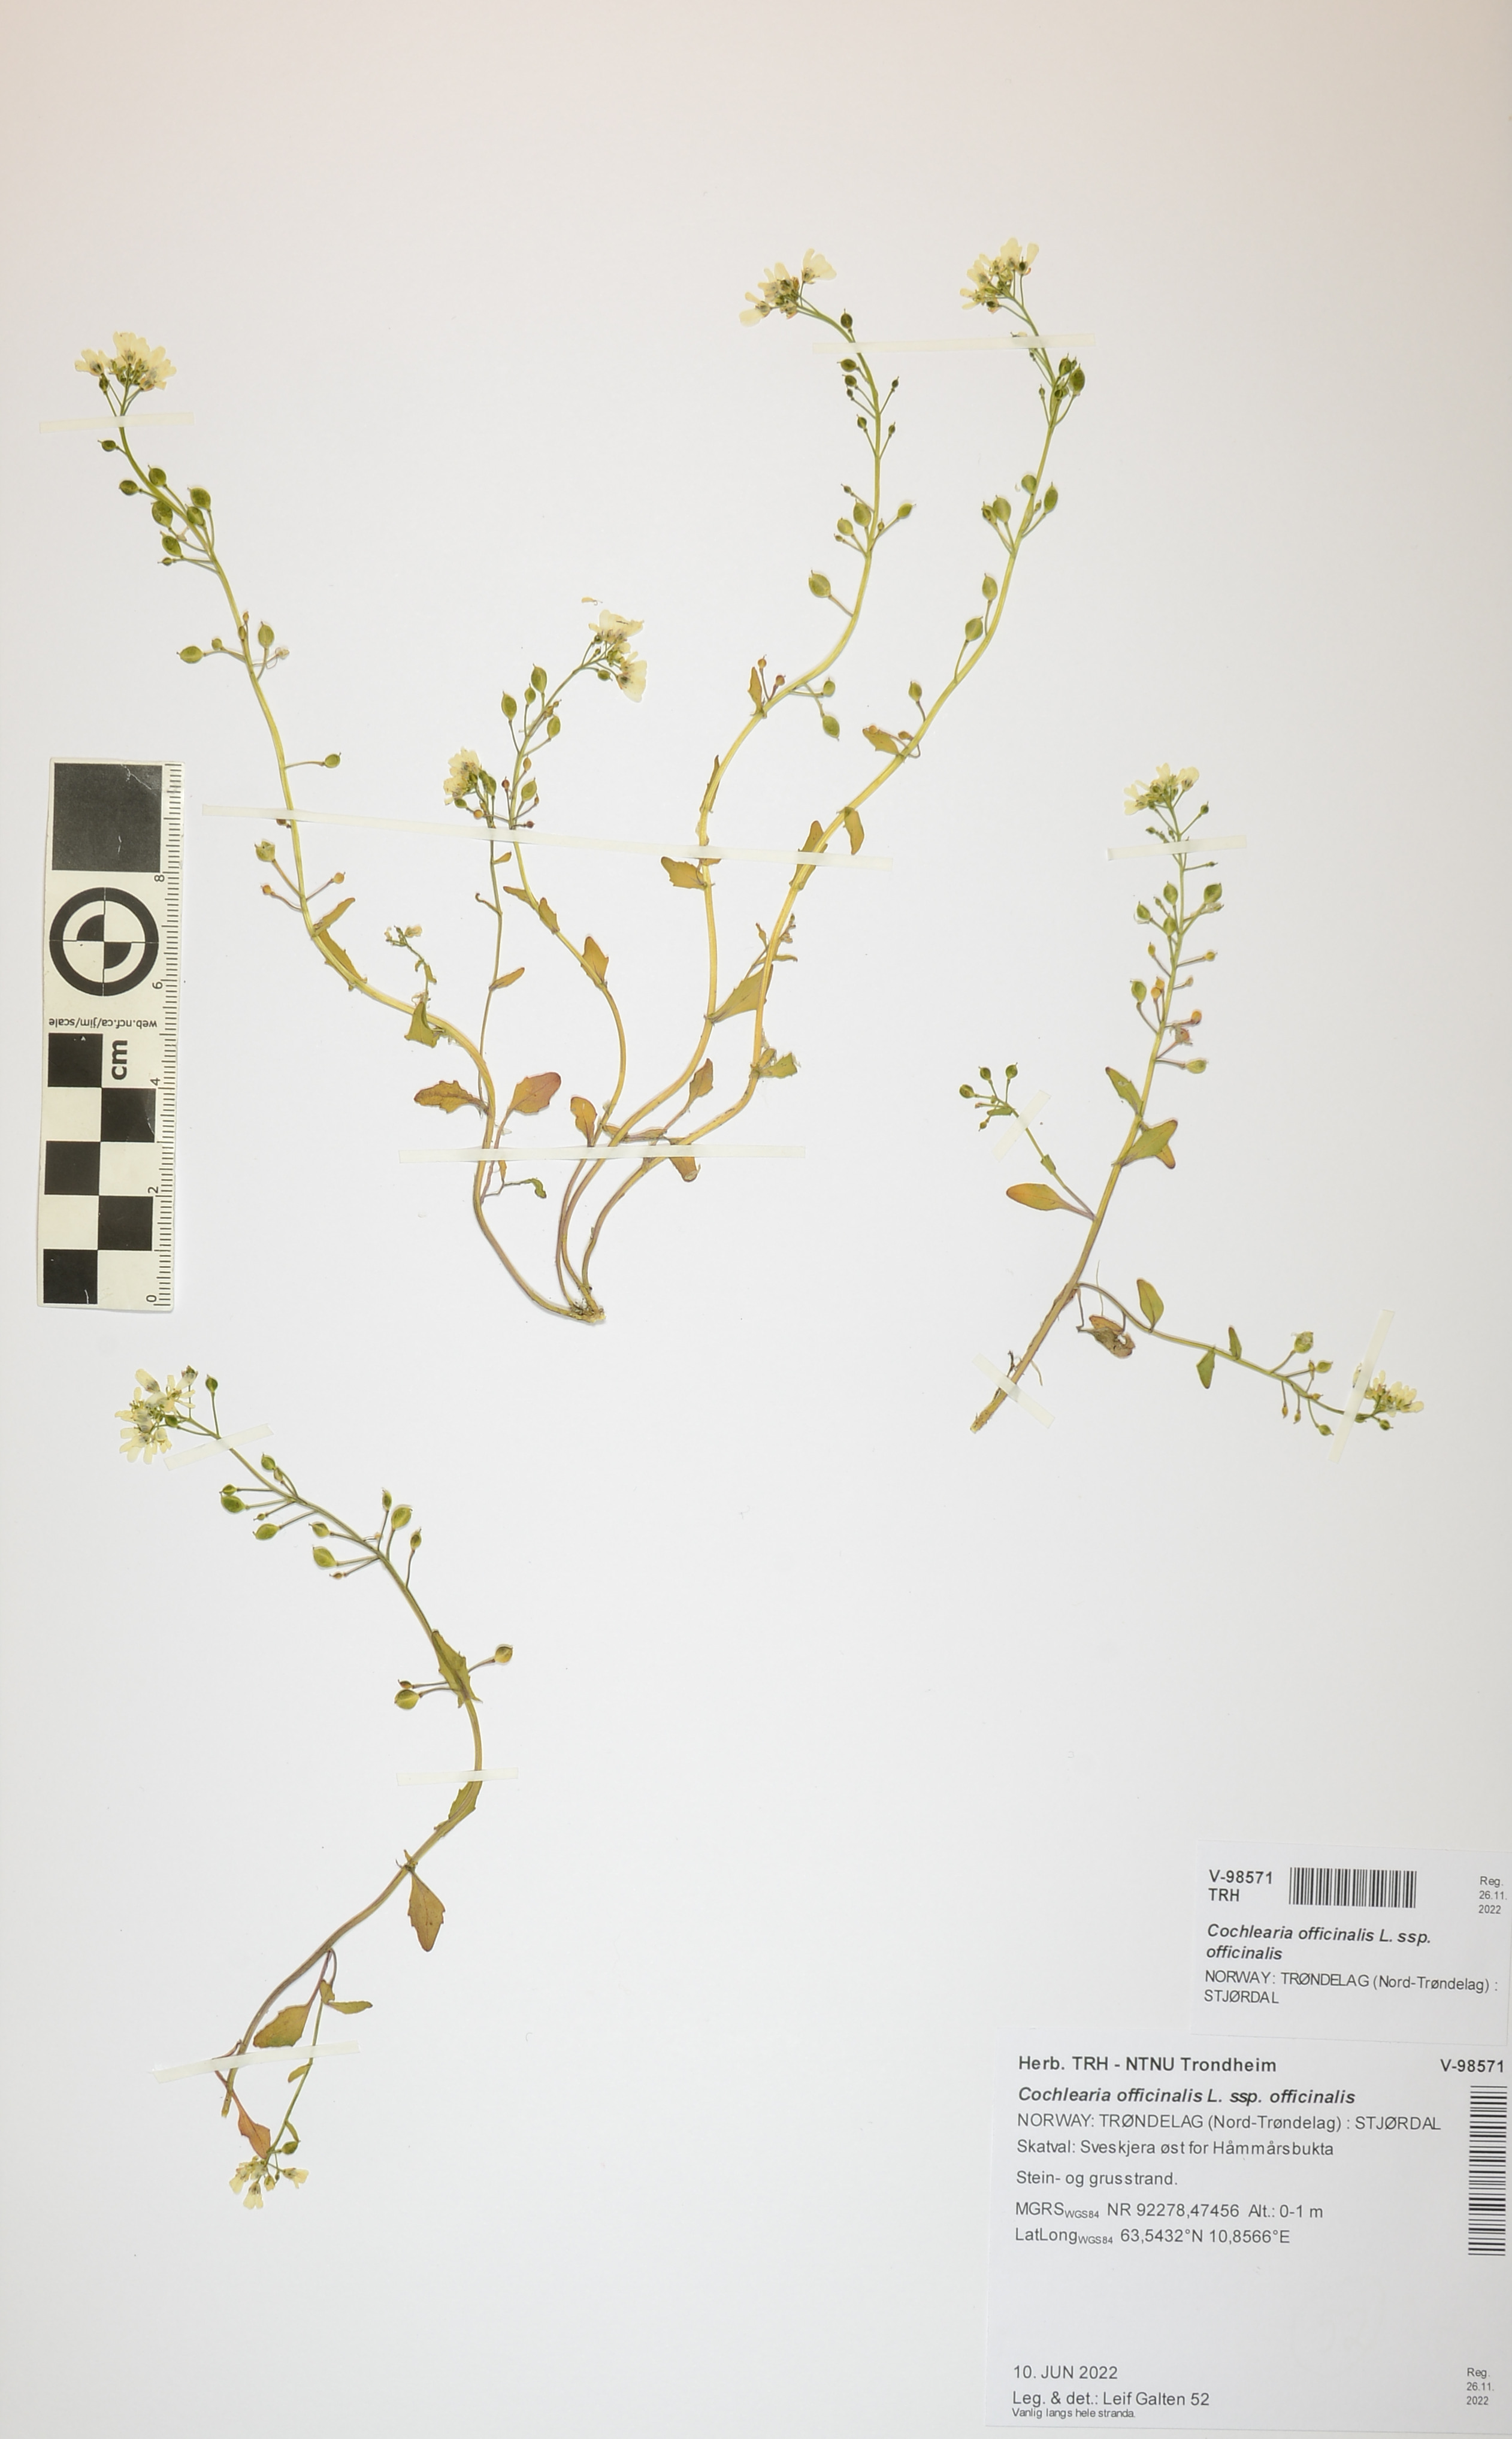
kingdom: Plantae
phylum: Tracheophyta
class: Magnoliopsida
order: Brassicales
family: Brassicaceae
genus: Cochlearia
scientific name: Cochlearia officinalis
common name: Scurvy-grass
